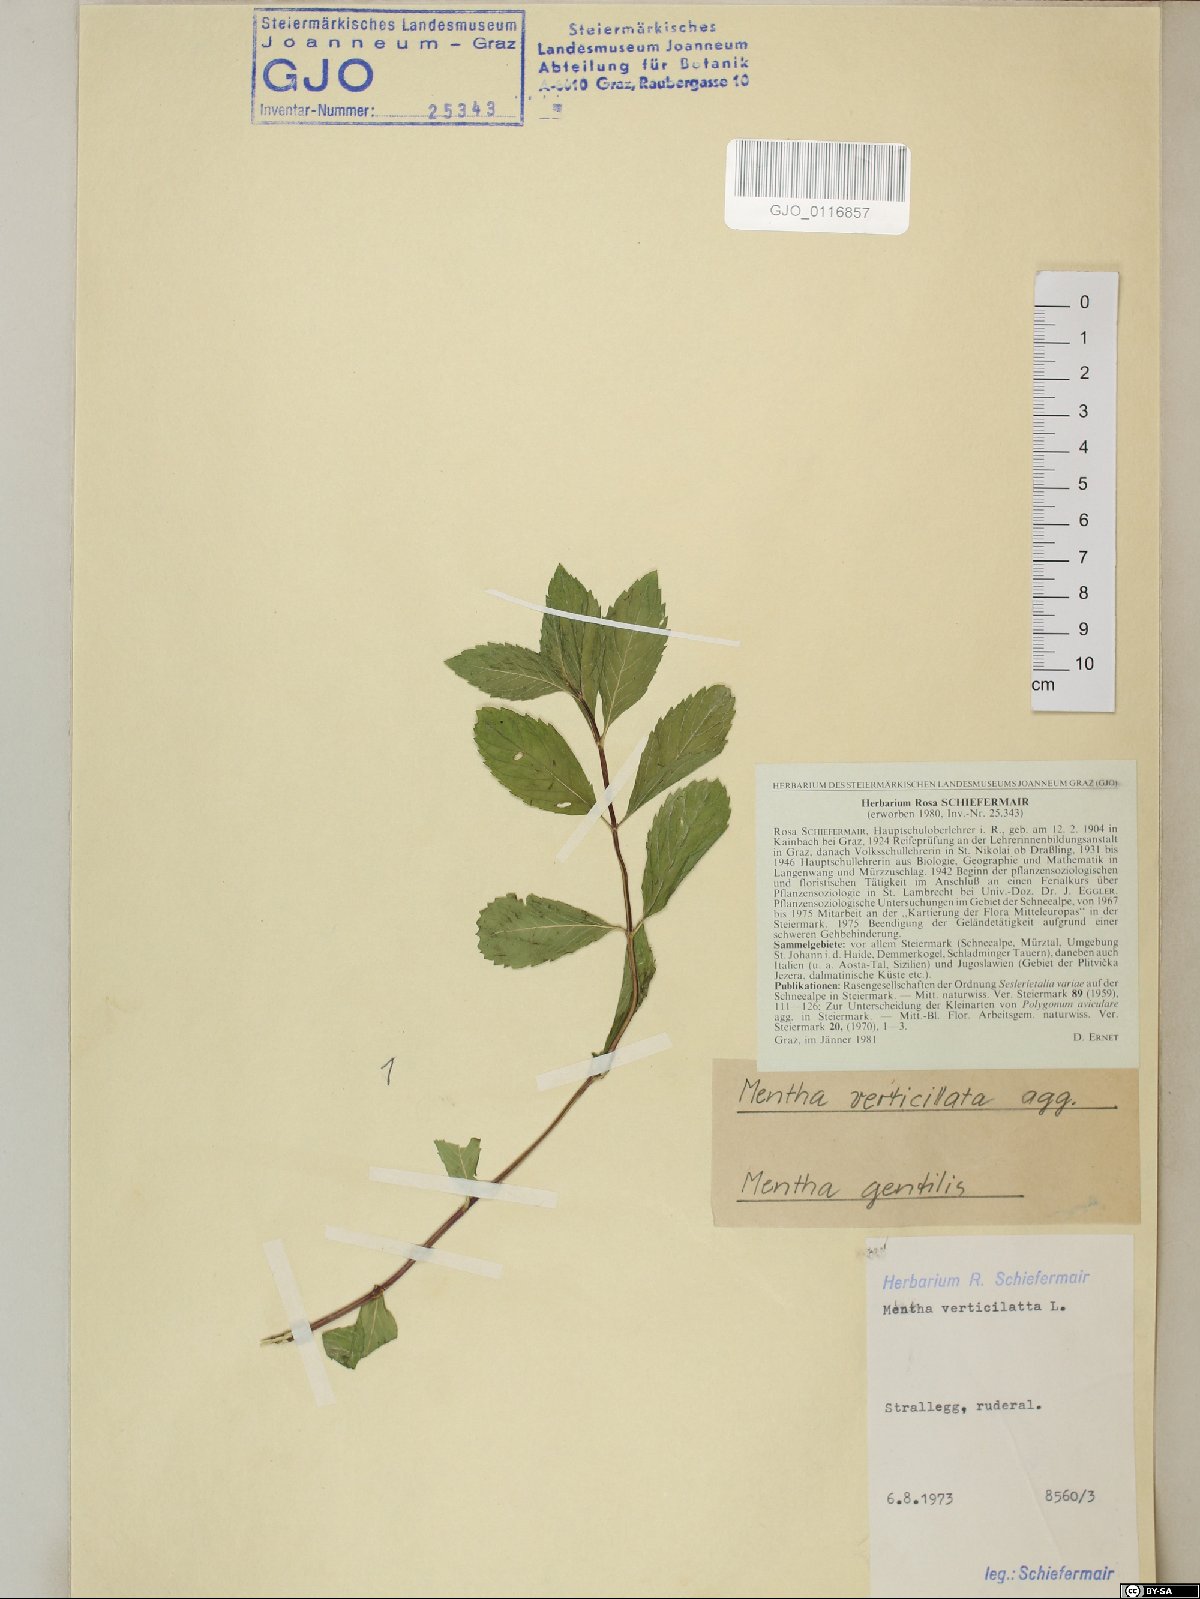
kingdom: Plantae
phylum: Tracheophyta
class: Magnoliopsida
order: Lamiales
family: Lamiaceae
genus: Mentha
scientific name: Mentha verticillata
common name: Mint
